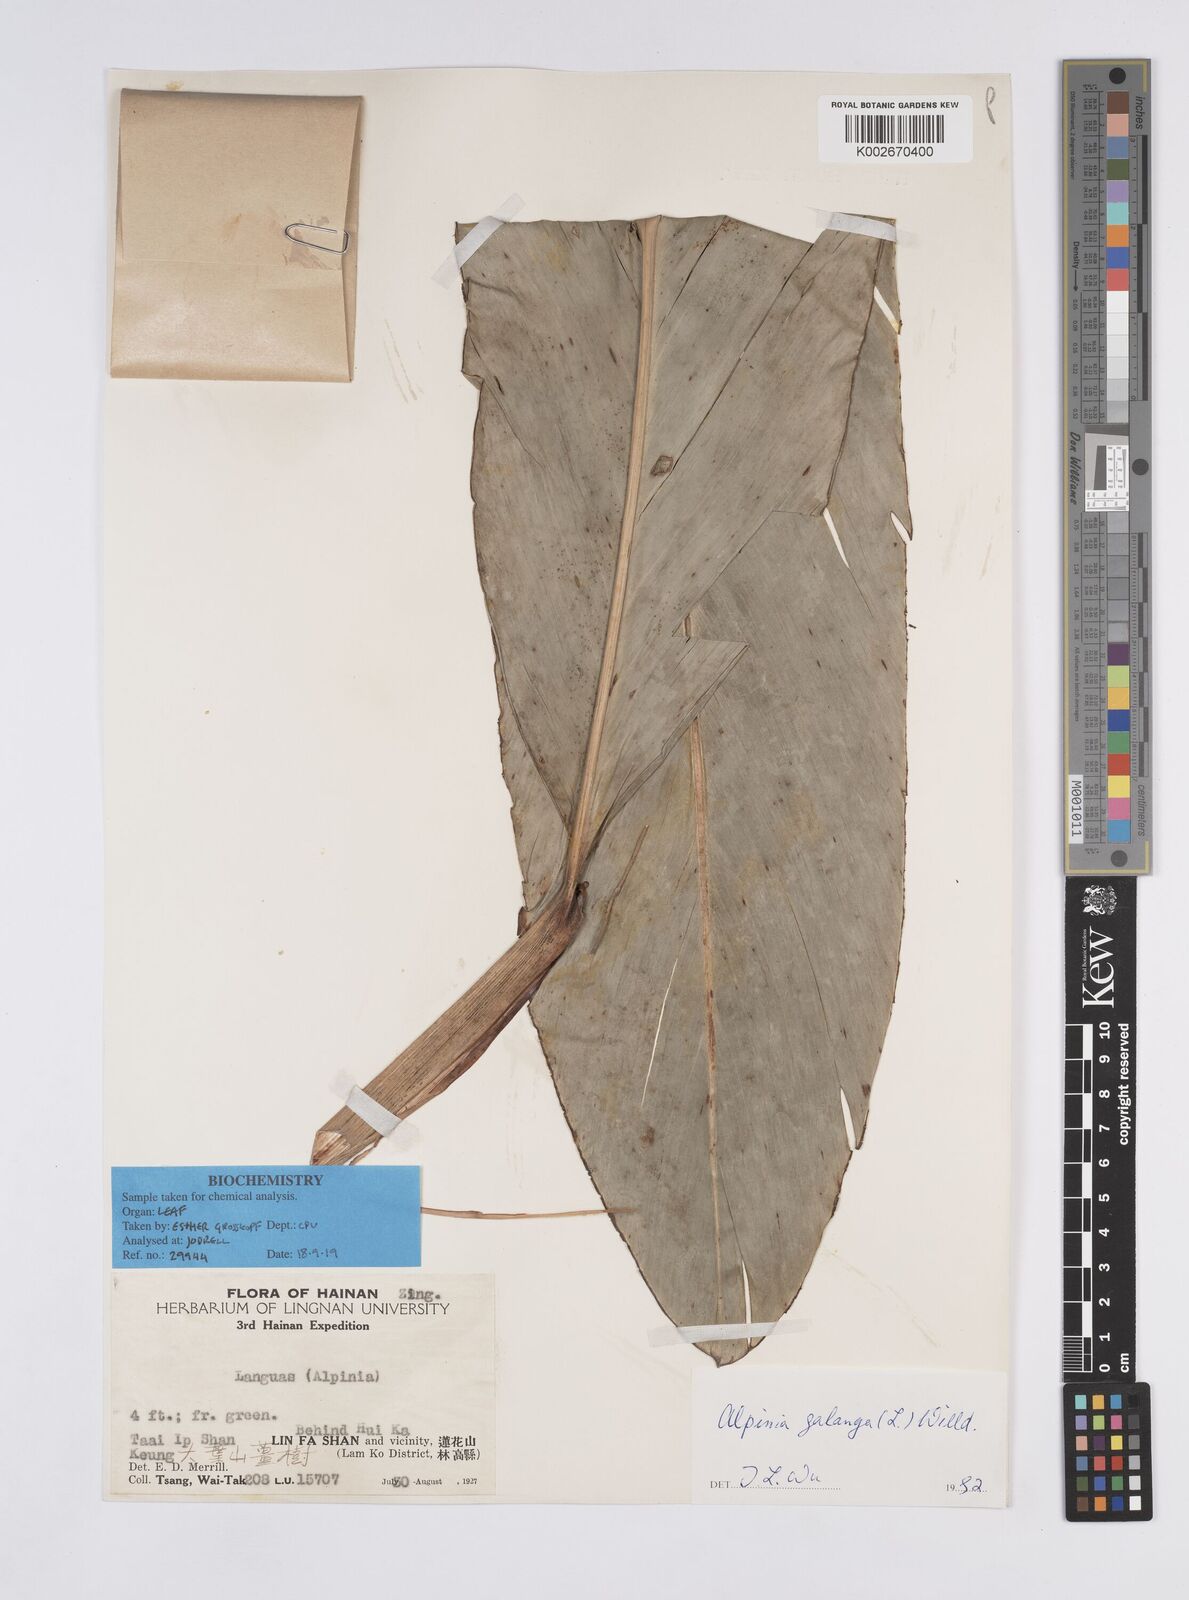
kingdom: Plantae
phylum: Tracheophyta
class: Liliopsida
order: Zingiberales
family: Zingiberaceae
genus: Alpinia
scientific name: Alpinia galanga
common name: Siamese-ginger
